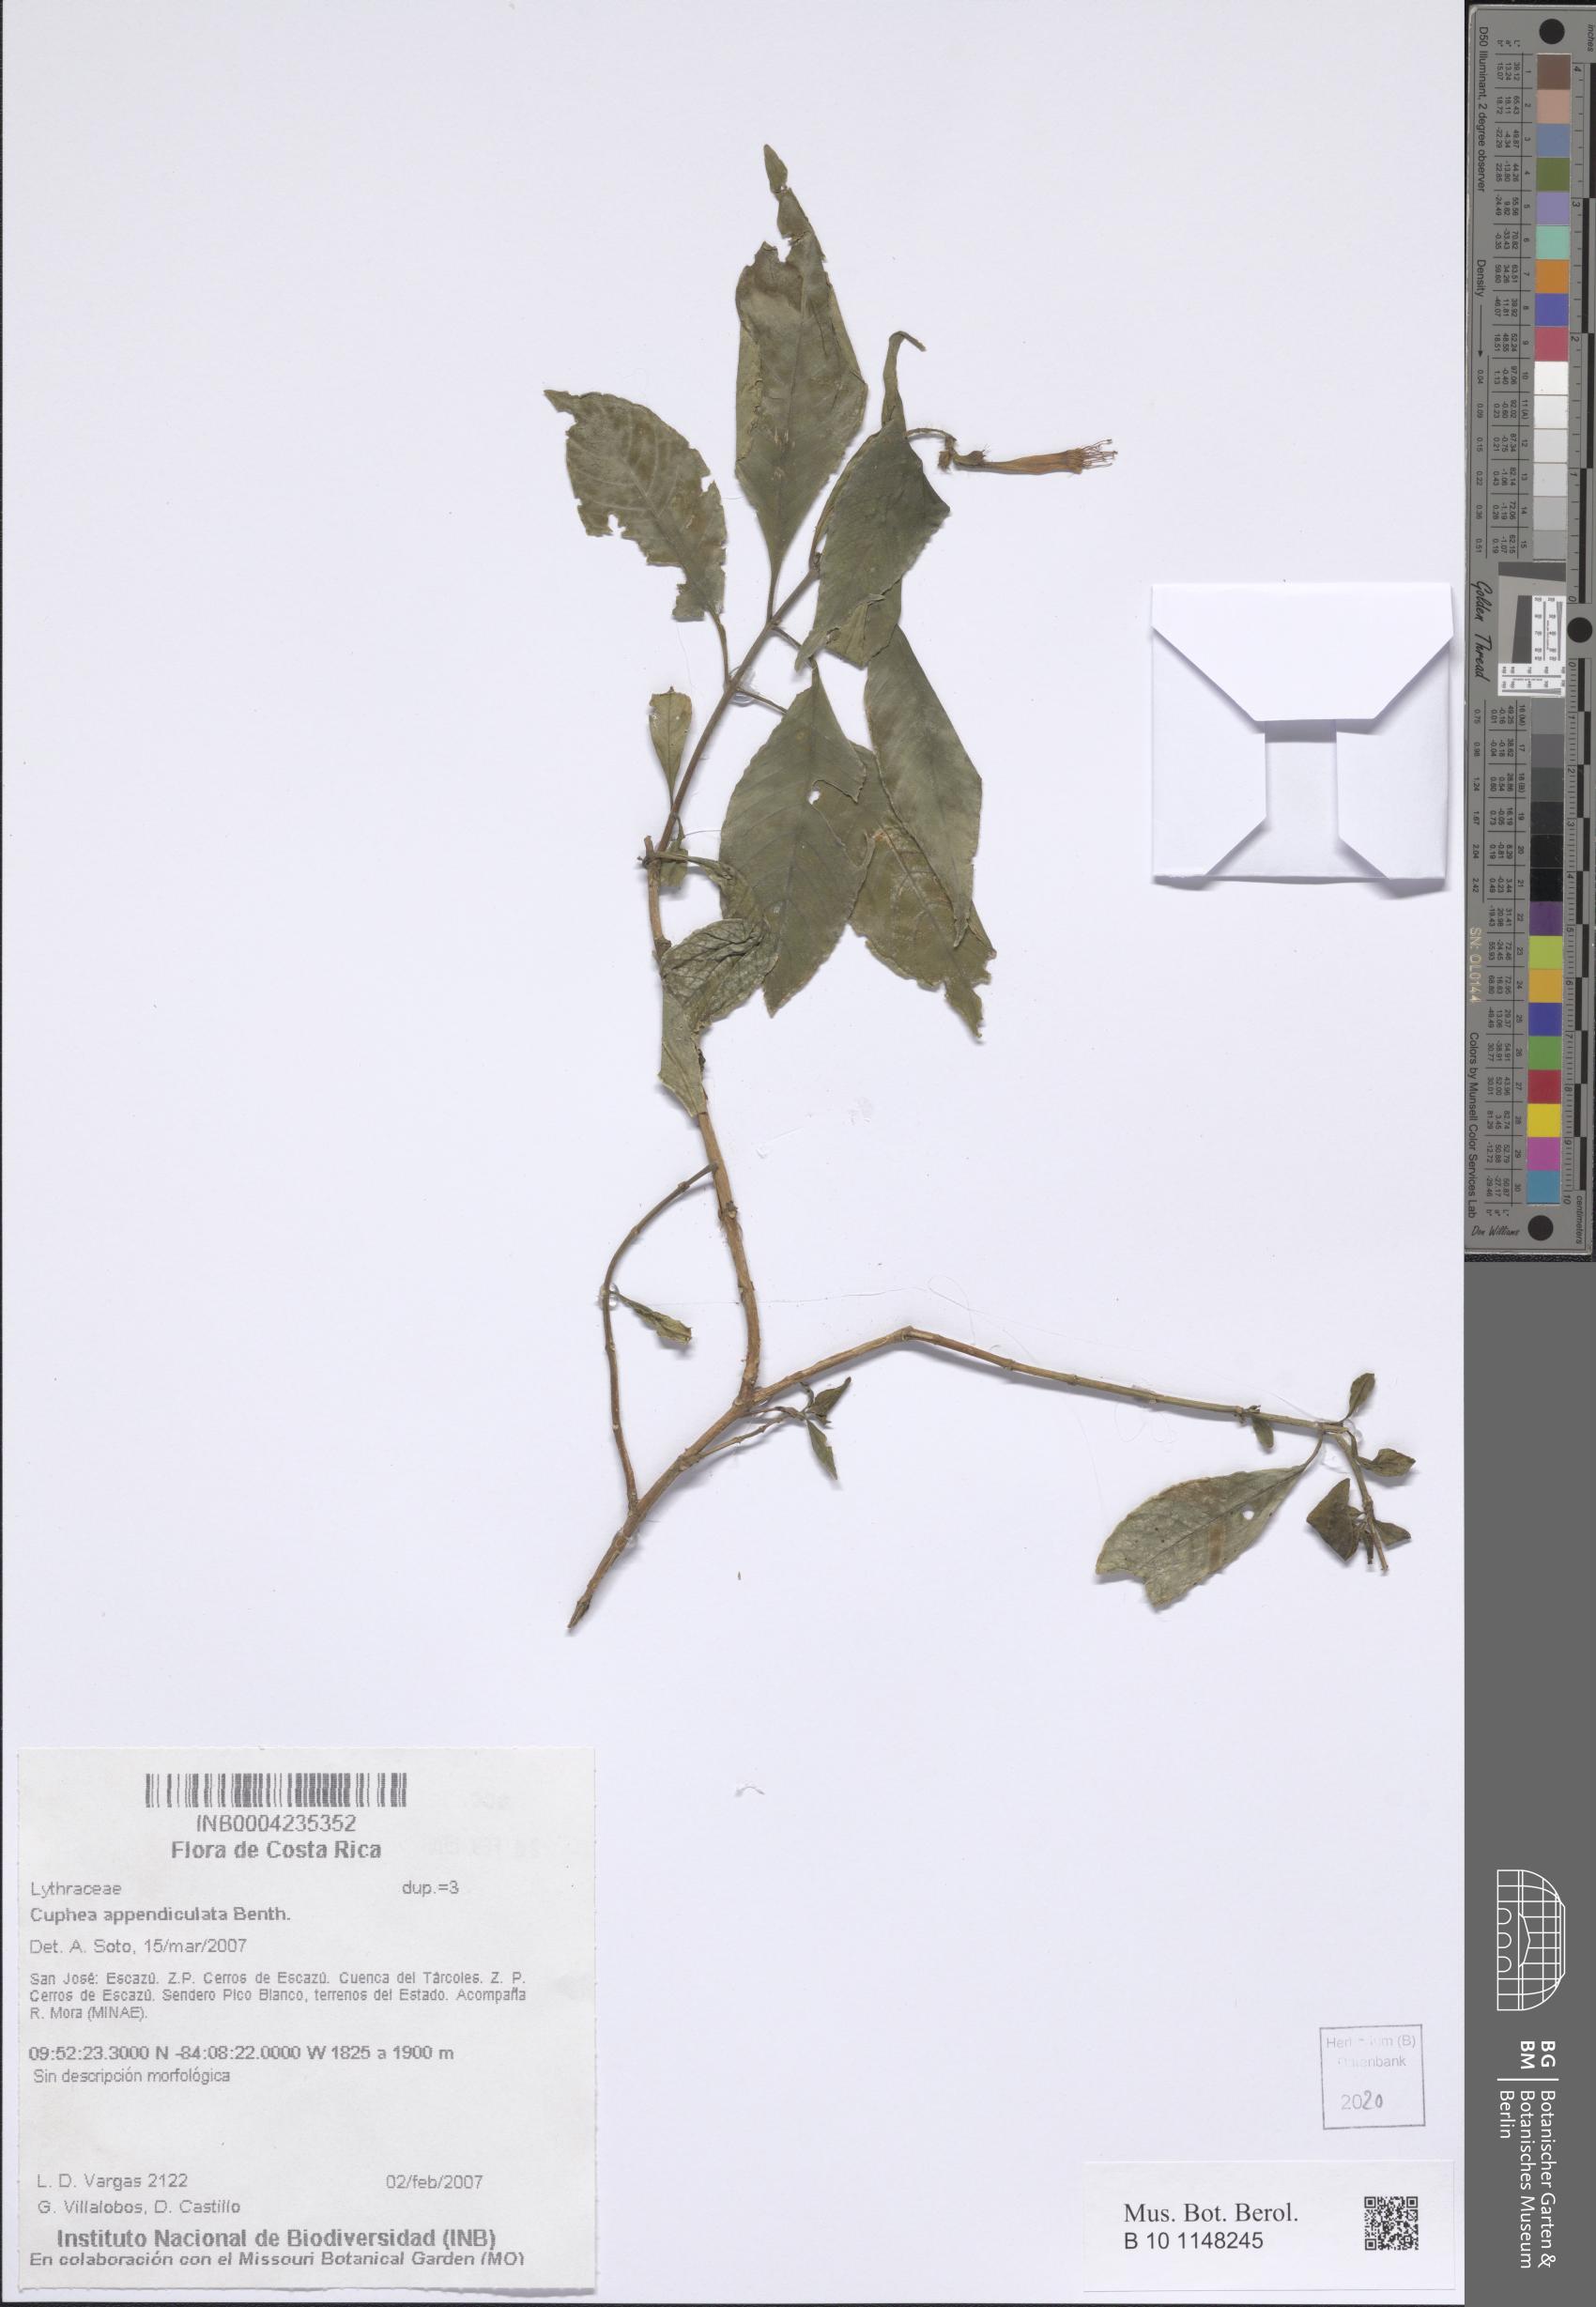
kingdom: Plantae
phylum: Tracheophyta
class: Magnoliopsida
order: Myrtales
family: Lythraceae
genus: Cuphea
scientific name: Cuphea appendiculata
